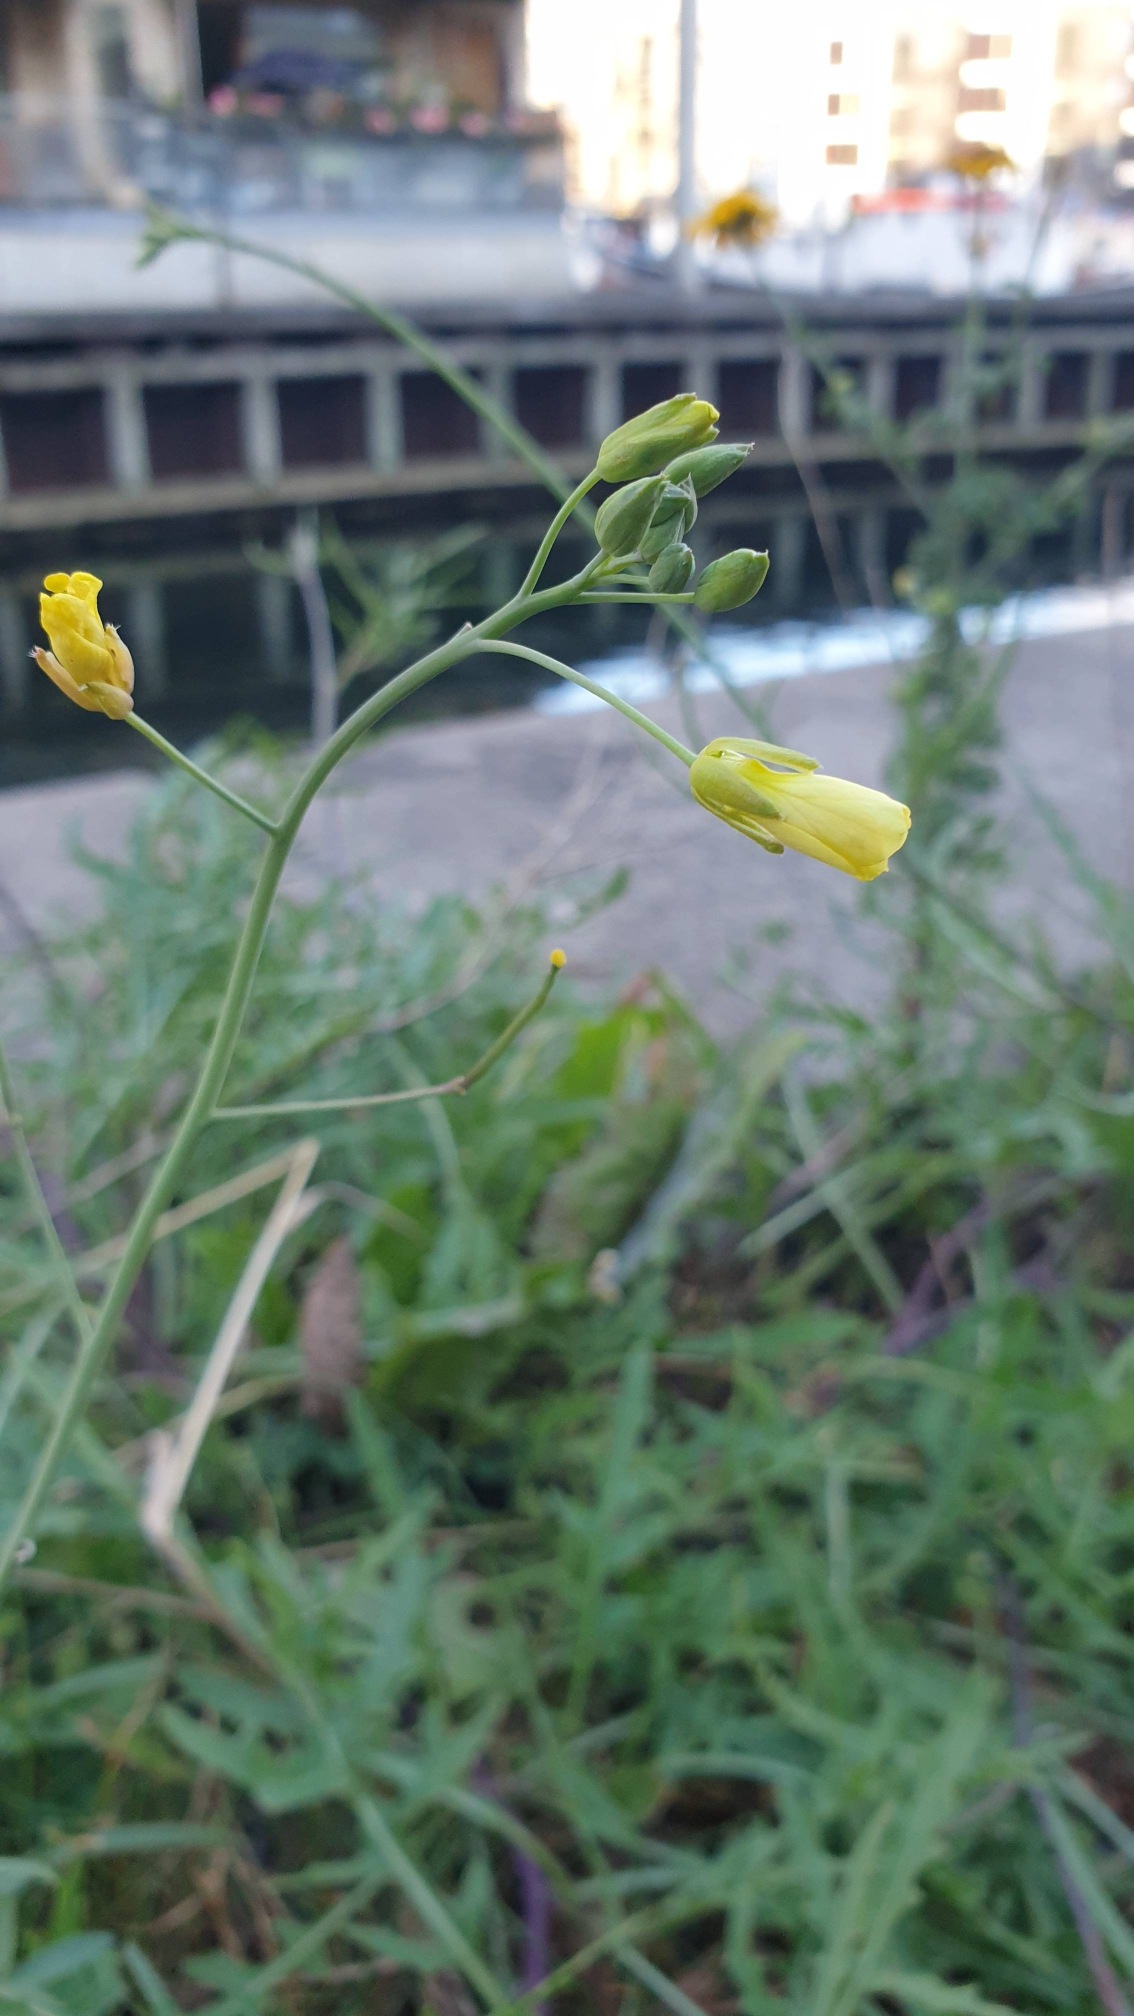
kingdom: Plantae
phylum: Tracheophyta
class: Magnoliopsida
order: Brassicales
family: Brassicaceae
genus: Diplotaxis
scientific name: Diplotaxis tenuifolia
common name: Sandsennep
